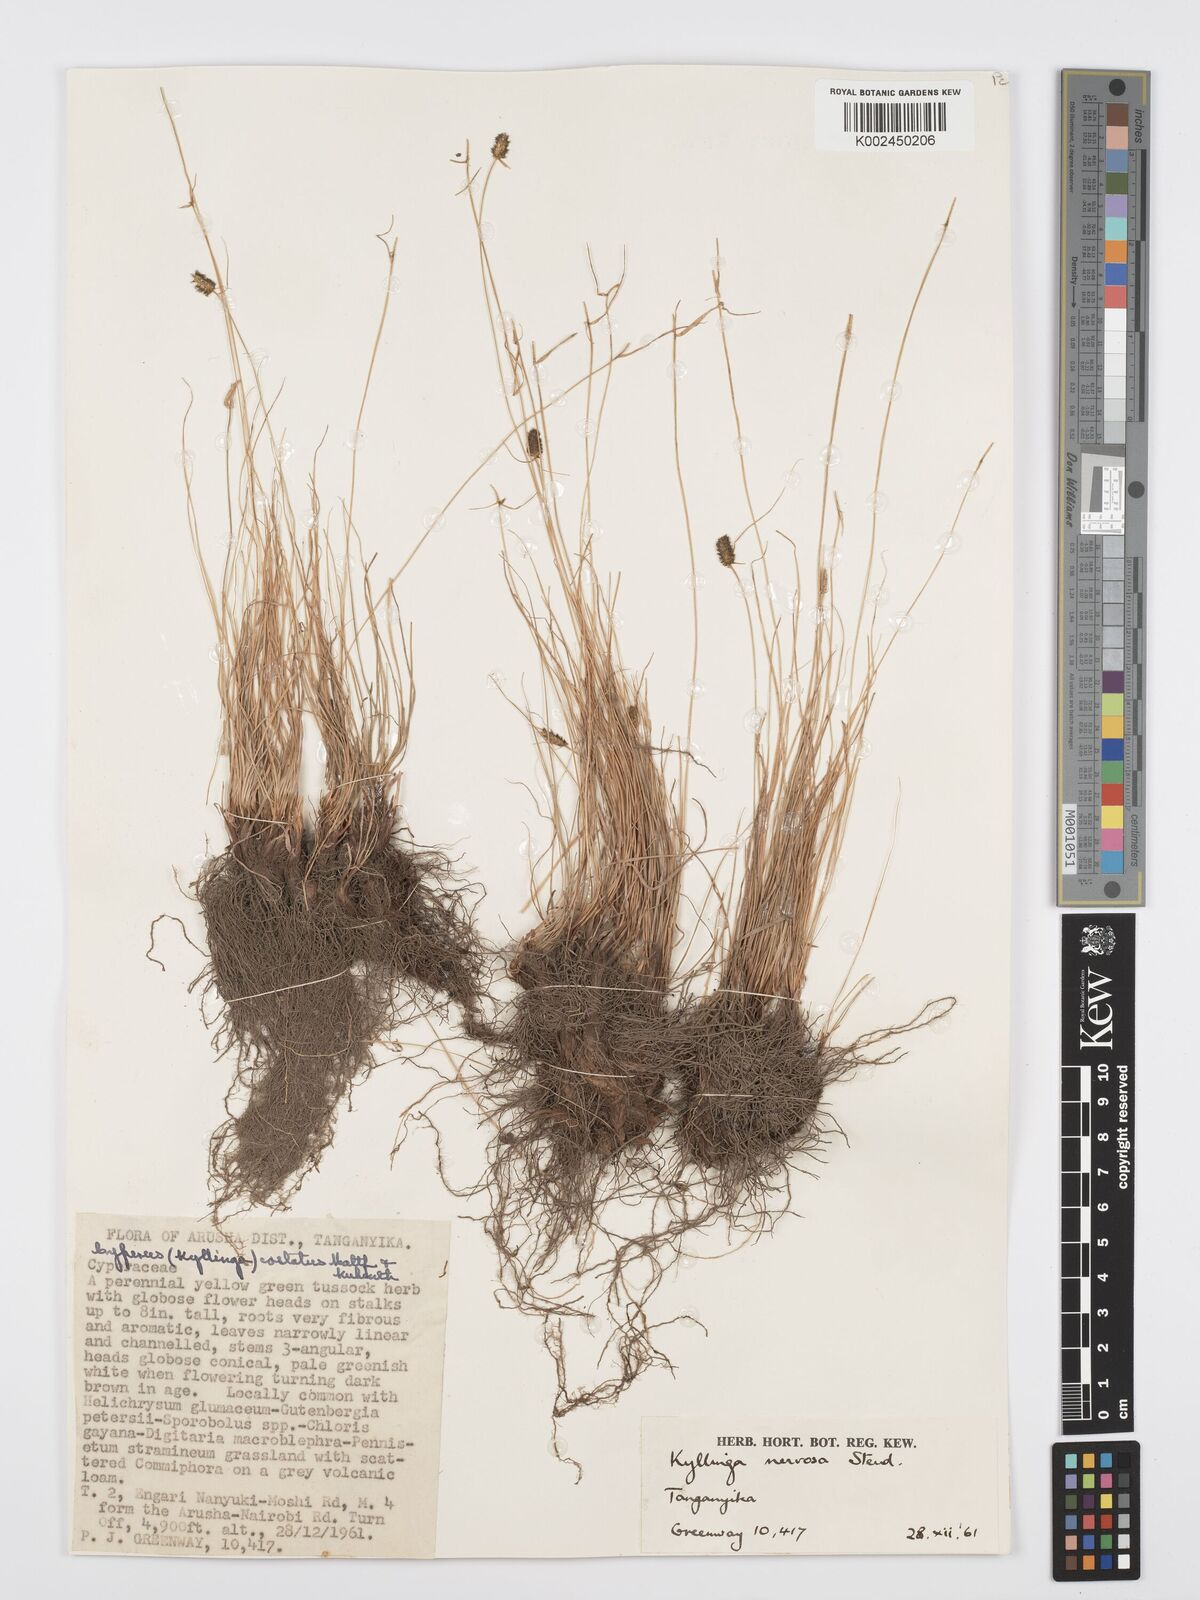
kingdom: Plantae
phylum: Tracheophyta
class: Liliopsida
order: Poales
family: Cyperaceae
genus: Cyperus
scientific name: Cyperus
